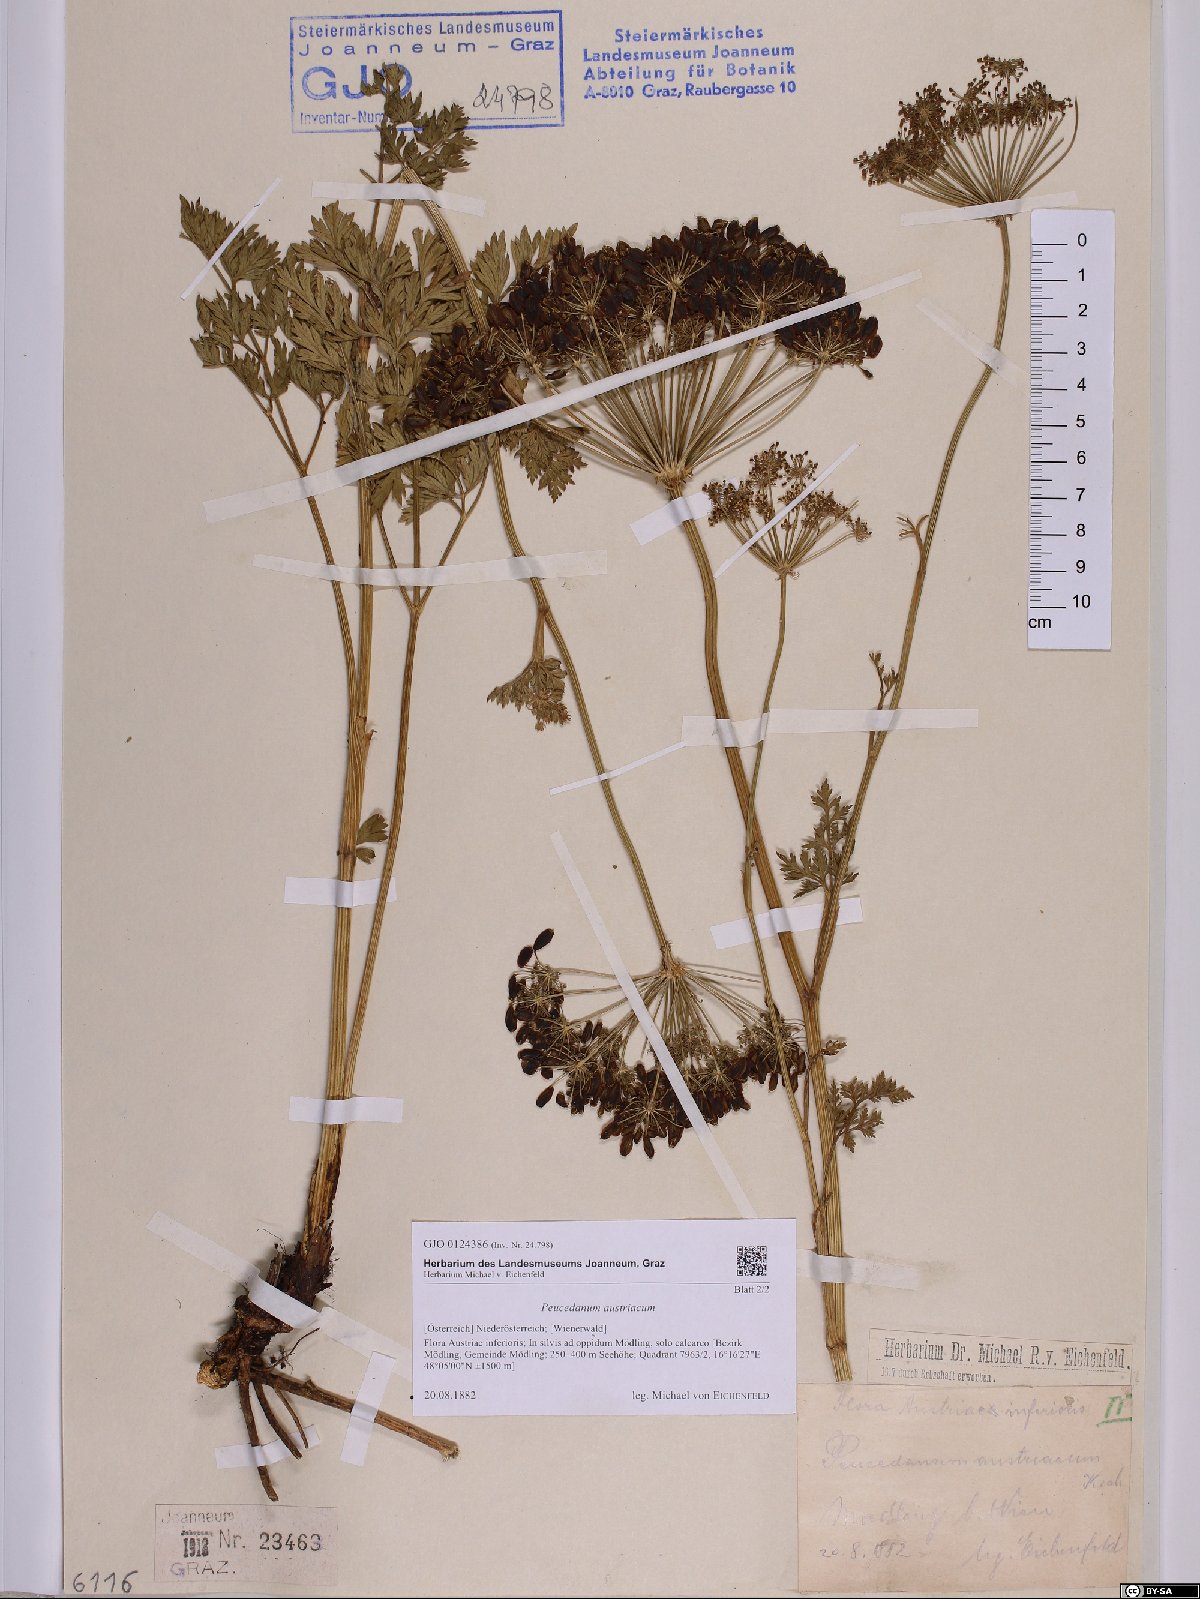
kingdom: Plantae
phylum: Tracheophyta
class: Magnoliopsida
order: Apiales
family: Apiaceae
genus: Peucedanum
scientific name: Peucedanum austriacum
